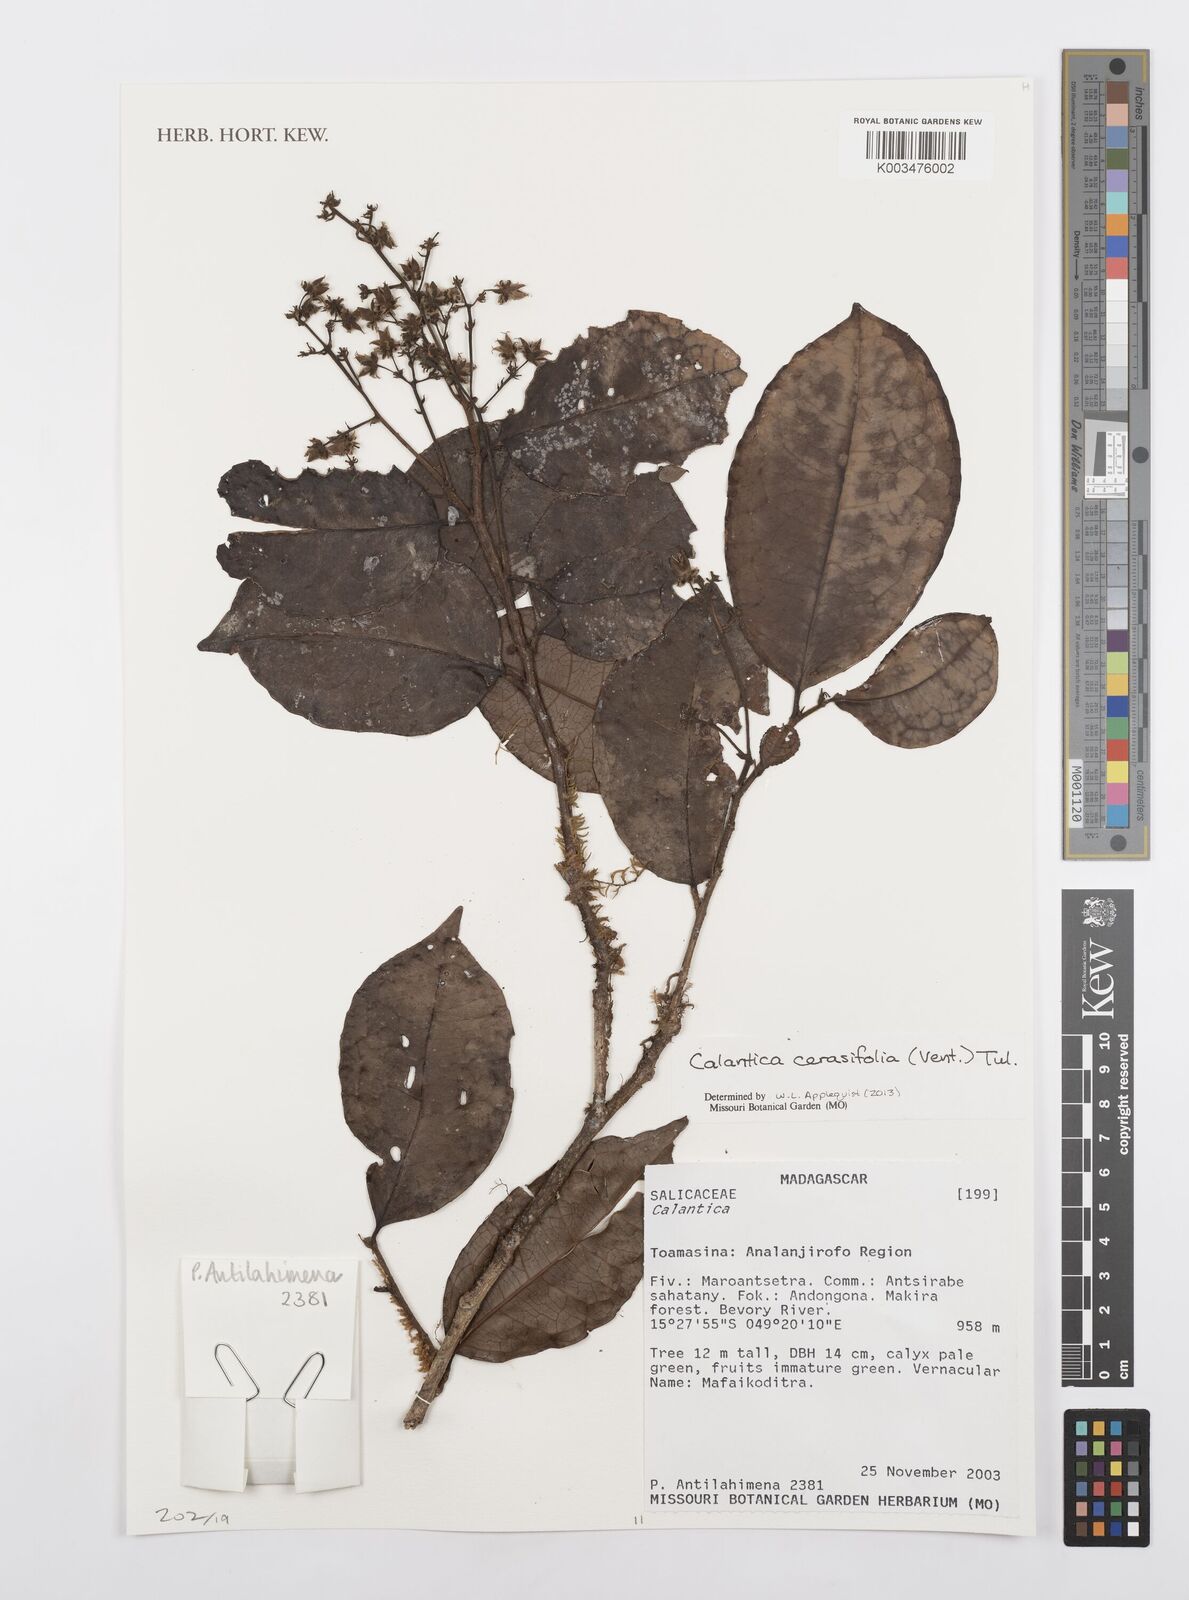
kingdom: Plantae
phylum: Tracheophyta
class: Magnoliopsida
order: Malpighiales
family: Salicaceae
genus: Calantica
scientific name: Calantica cerasifolia
